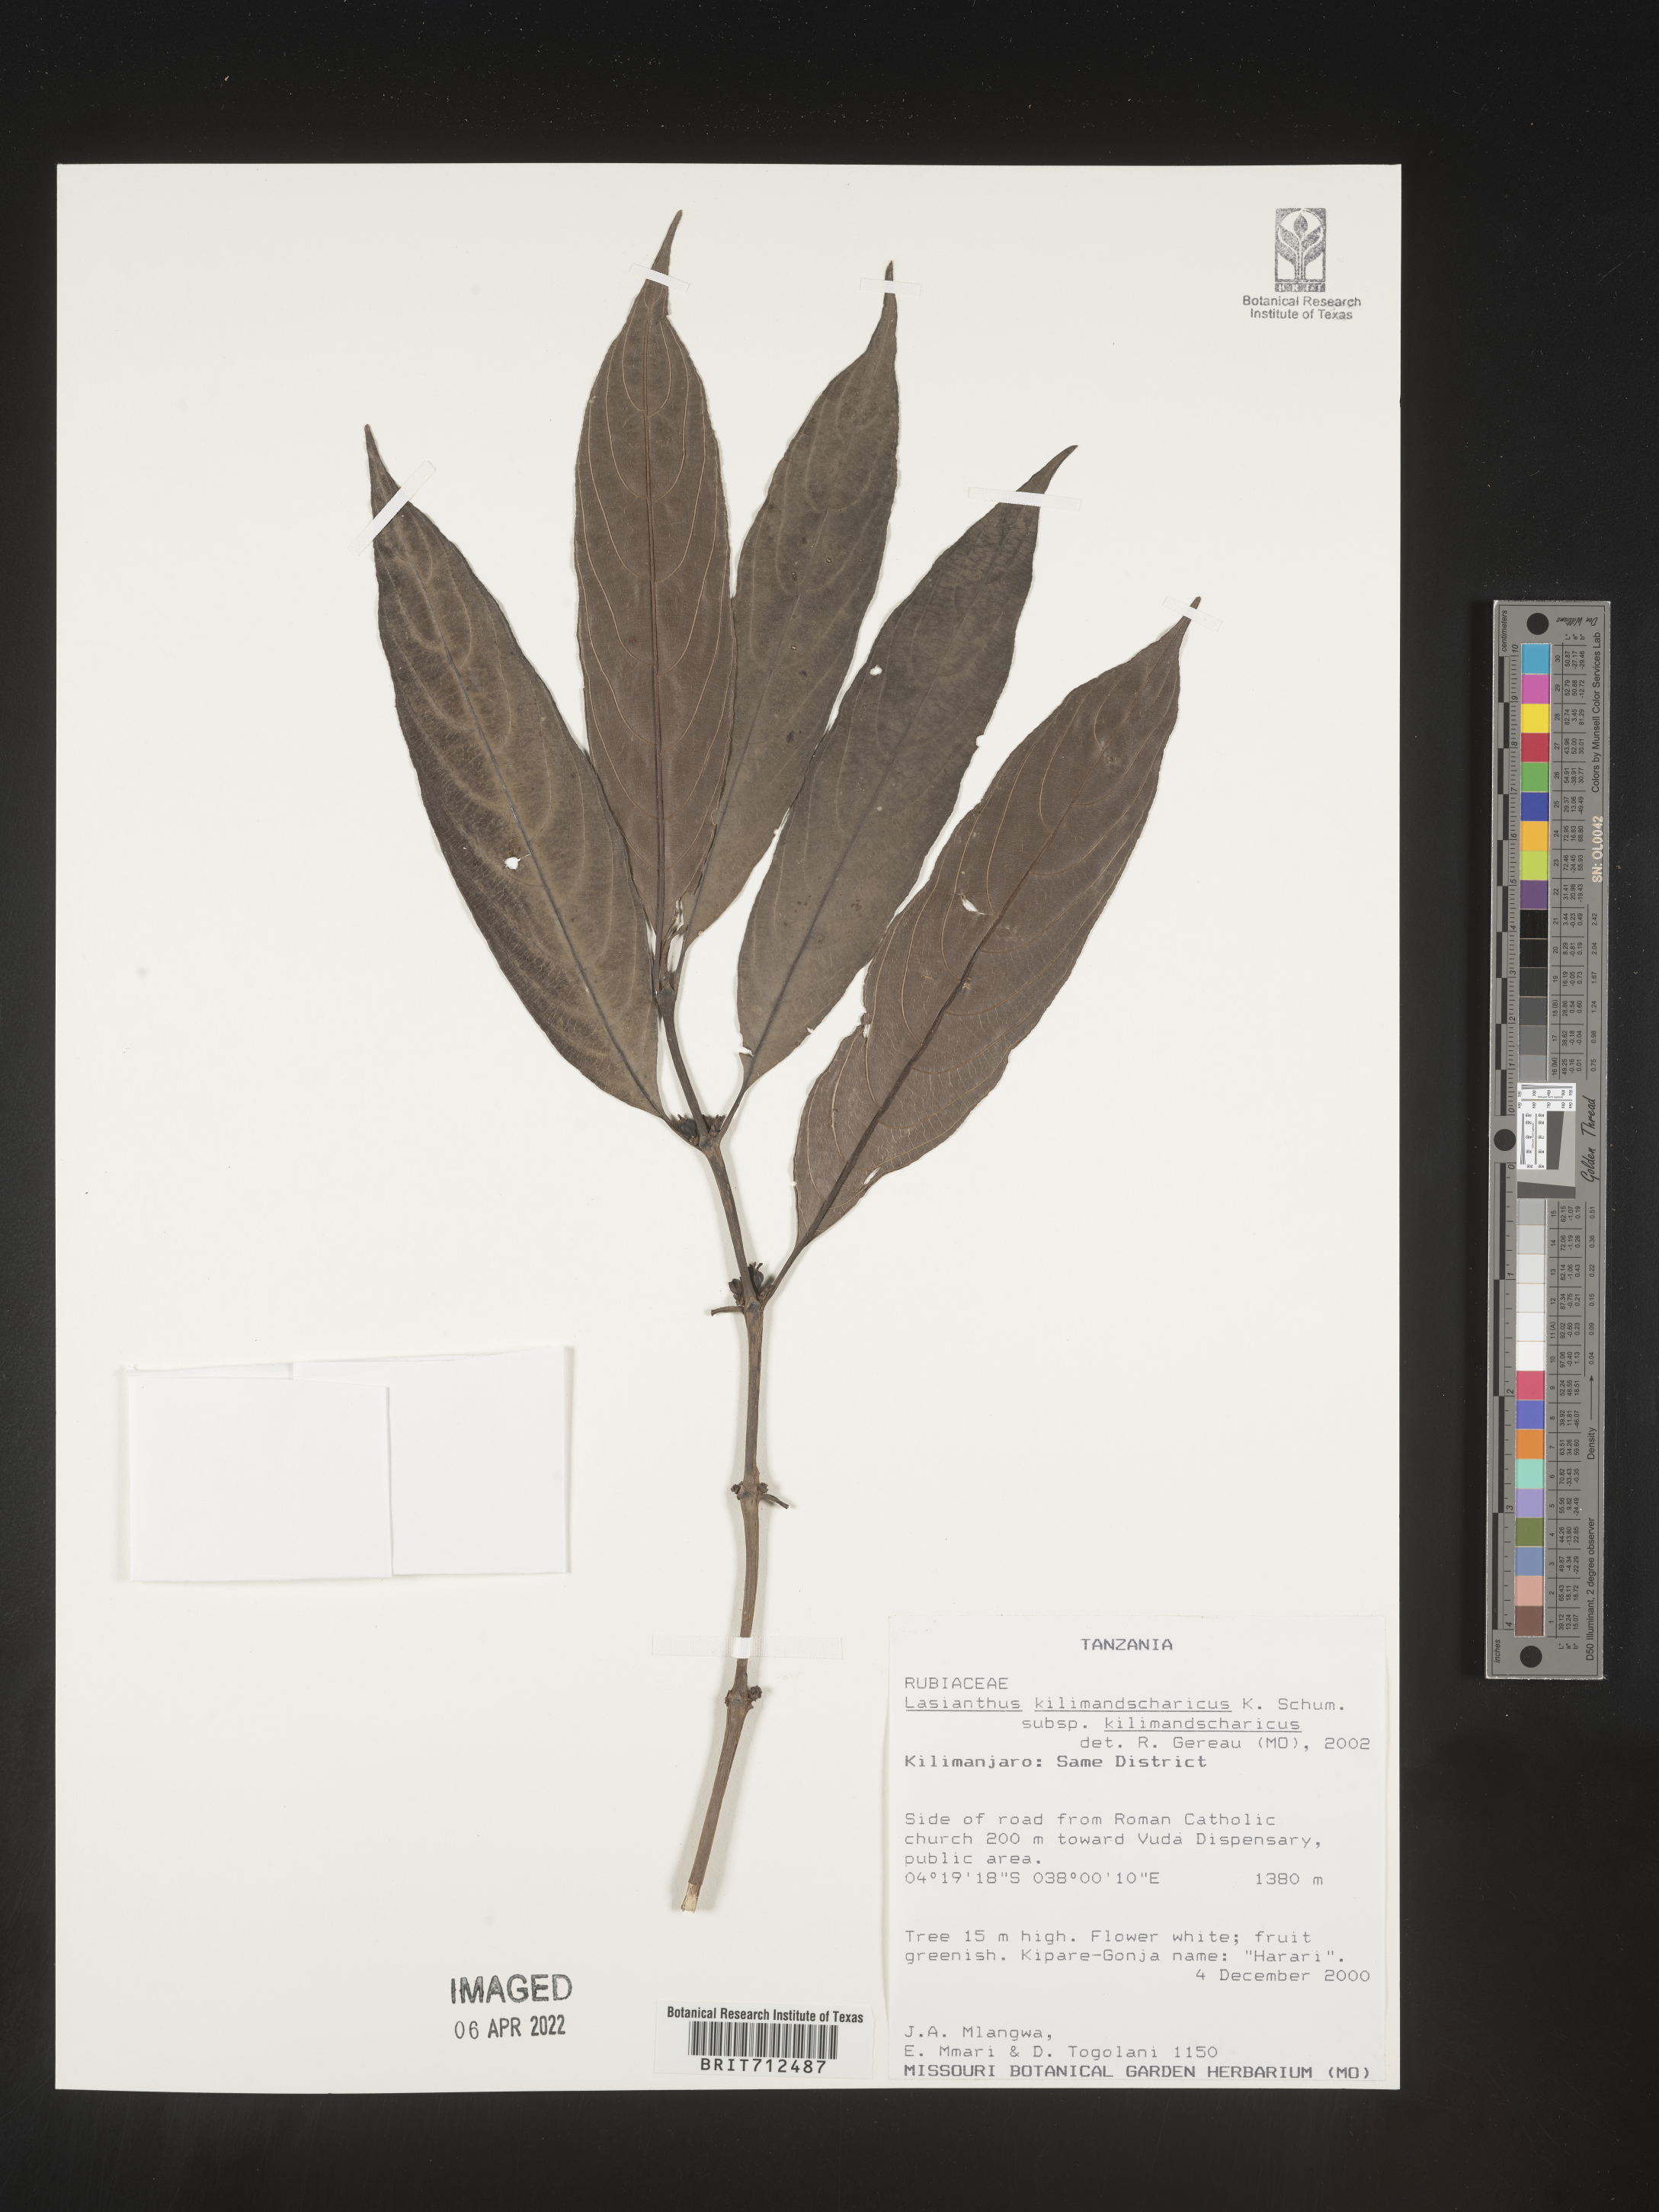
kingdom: Plantae
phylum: Tracheophyta
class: Magnoliopsida
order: Gentianales
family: Rubiaceae
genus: Lasianthus
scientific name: Lasianthus
